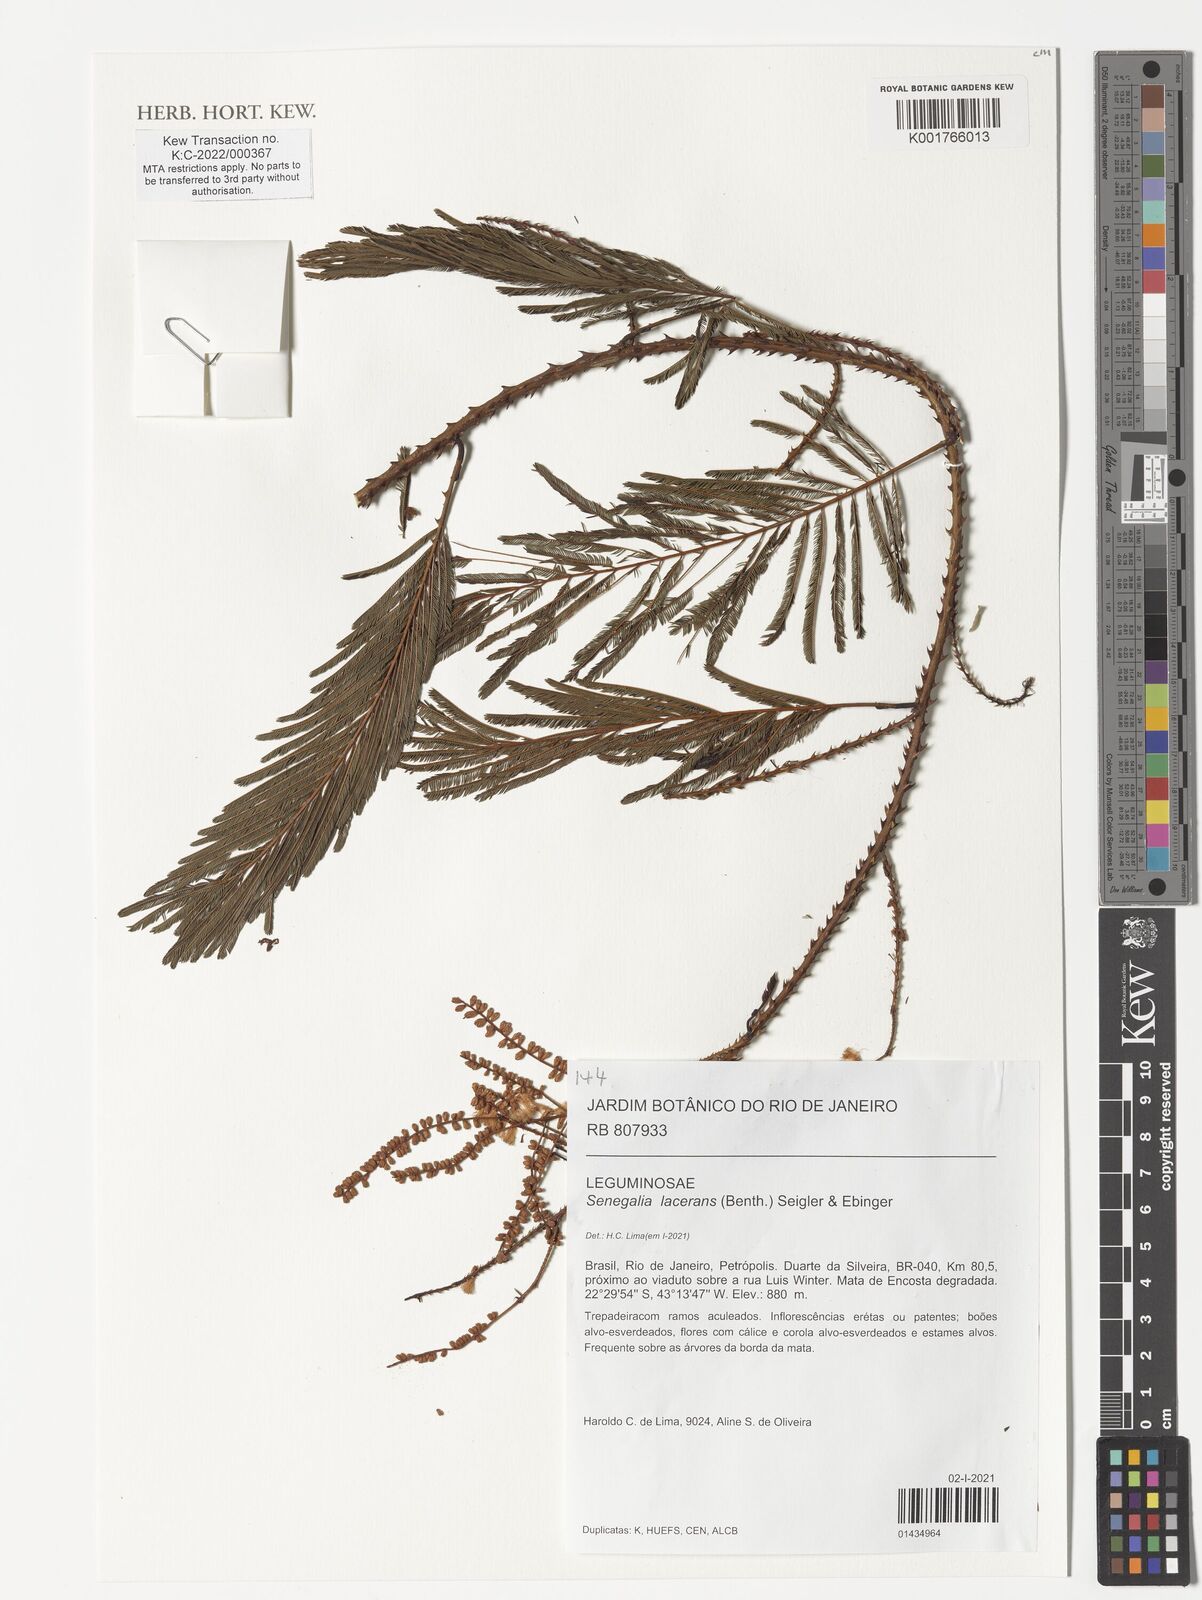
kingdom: Plantae
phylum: Tracheophyta
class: Magnoliopsida
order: Fabales
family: Fabaceae
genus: Senegalia
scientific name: Senegalia lacerans
